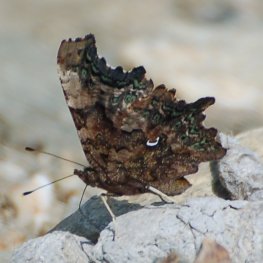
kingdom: Animalia
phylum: Arthropoda
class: Insecta
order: Lepidoptera
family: Nymphalidae
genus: Polygonia
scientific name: Polygonia faunus
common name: Green Comma
